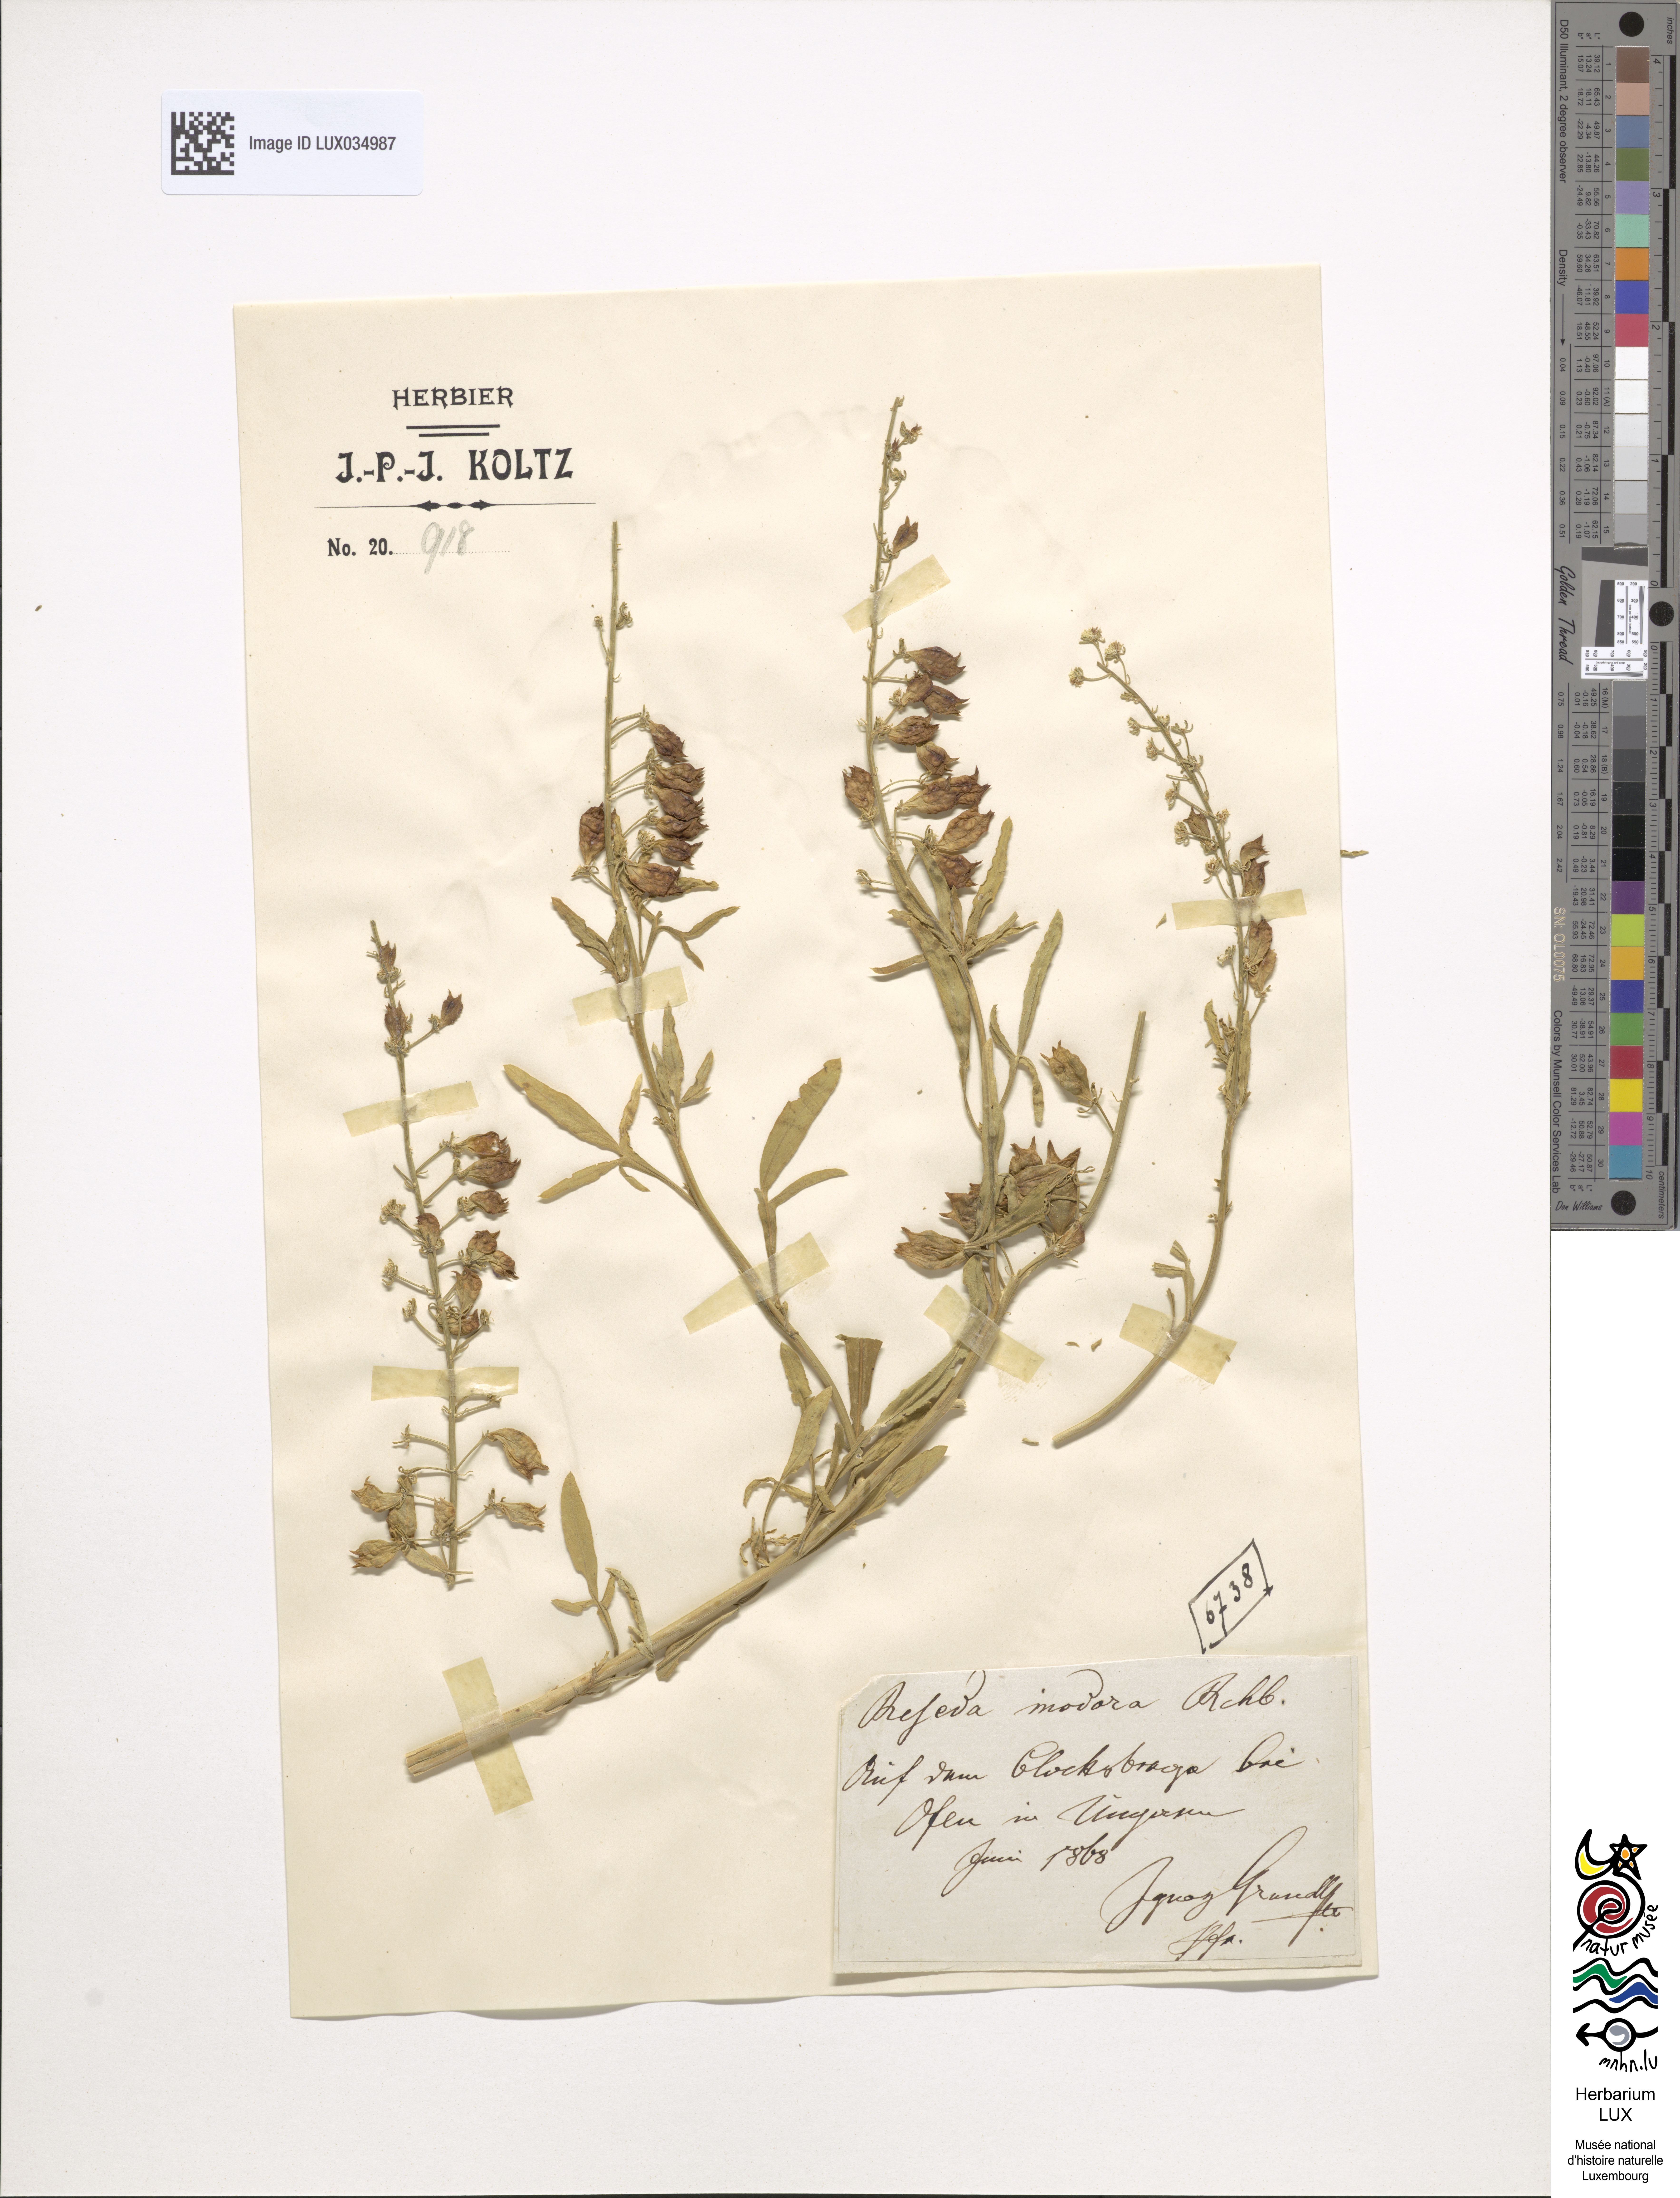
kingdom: Plantae
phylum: Tracheophyta
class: Magnoliopsida
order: Brassicales
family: Resedaceae
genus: Reseda
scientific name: Reseda inodora
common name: Scentless mignonette
